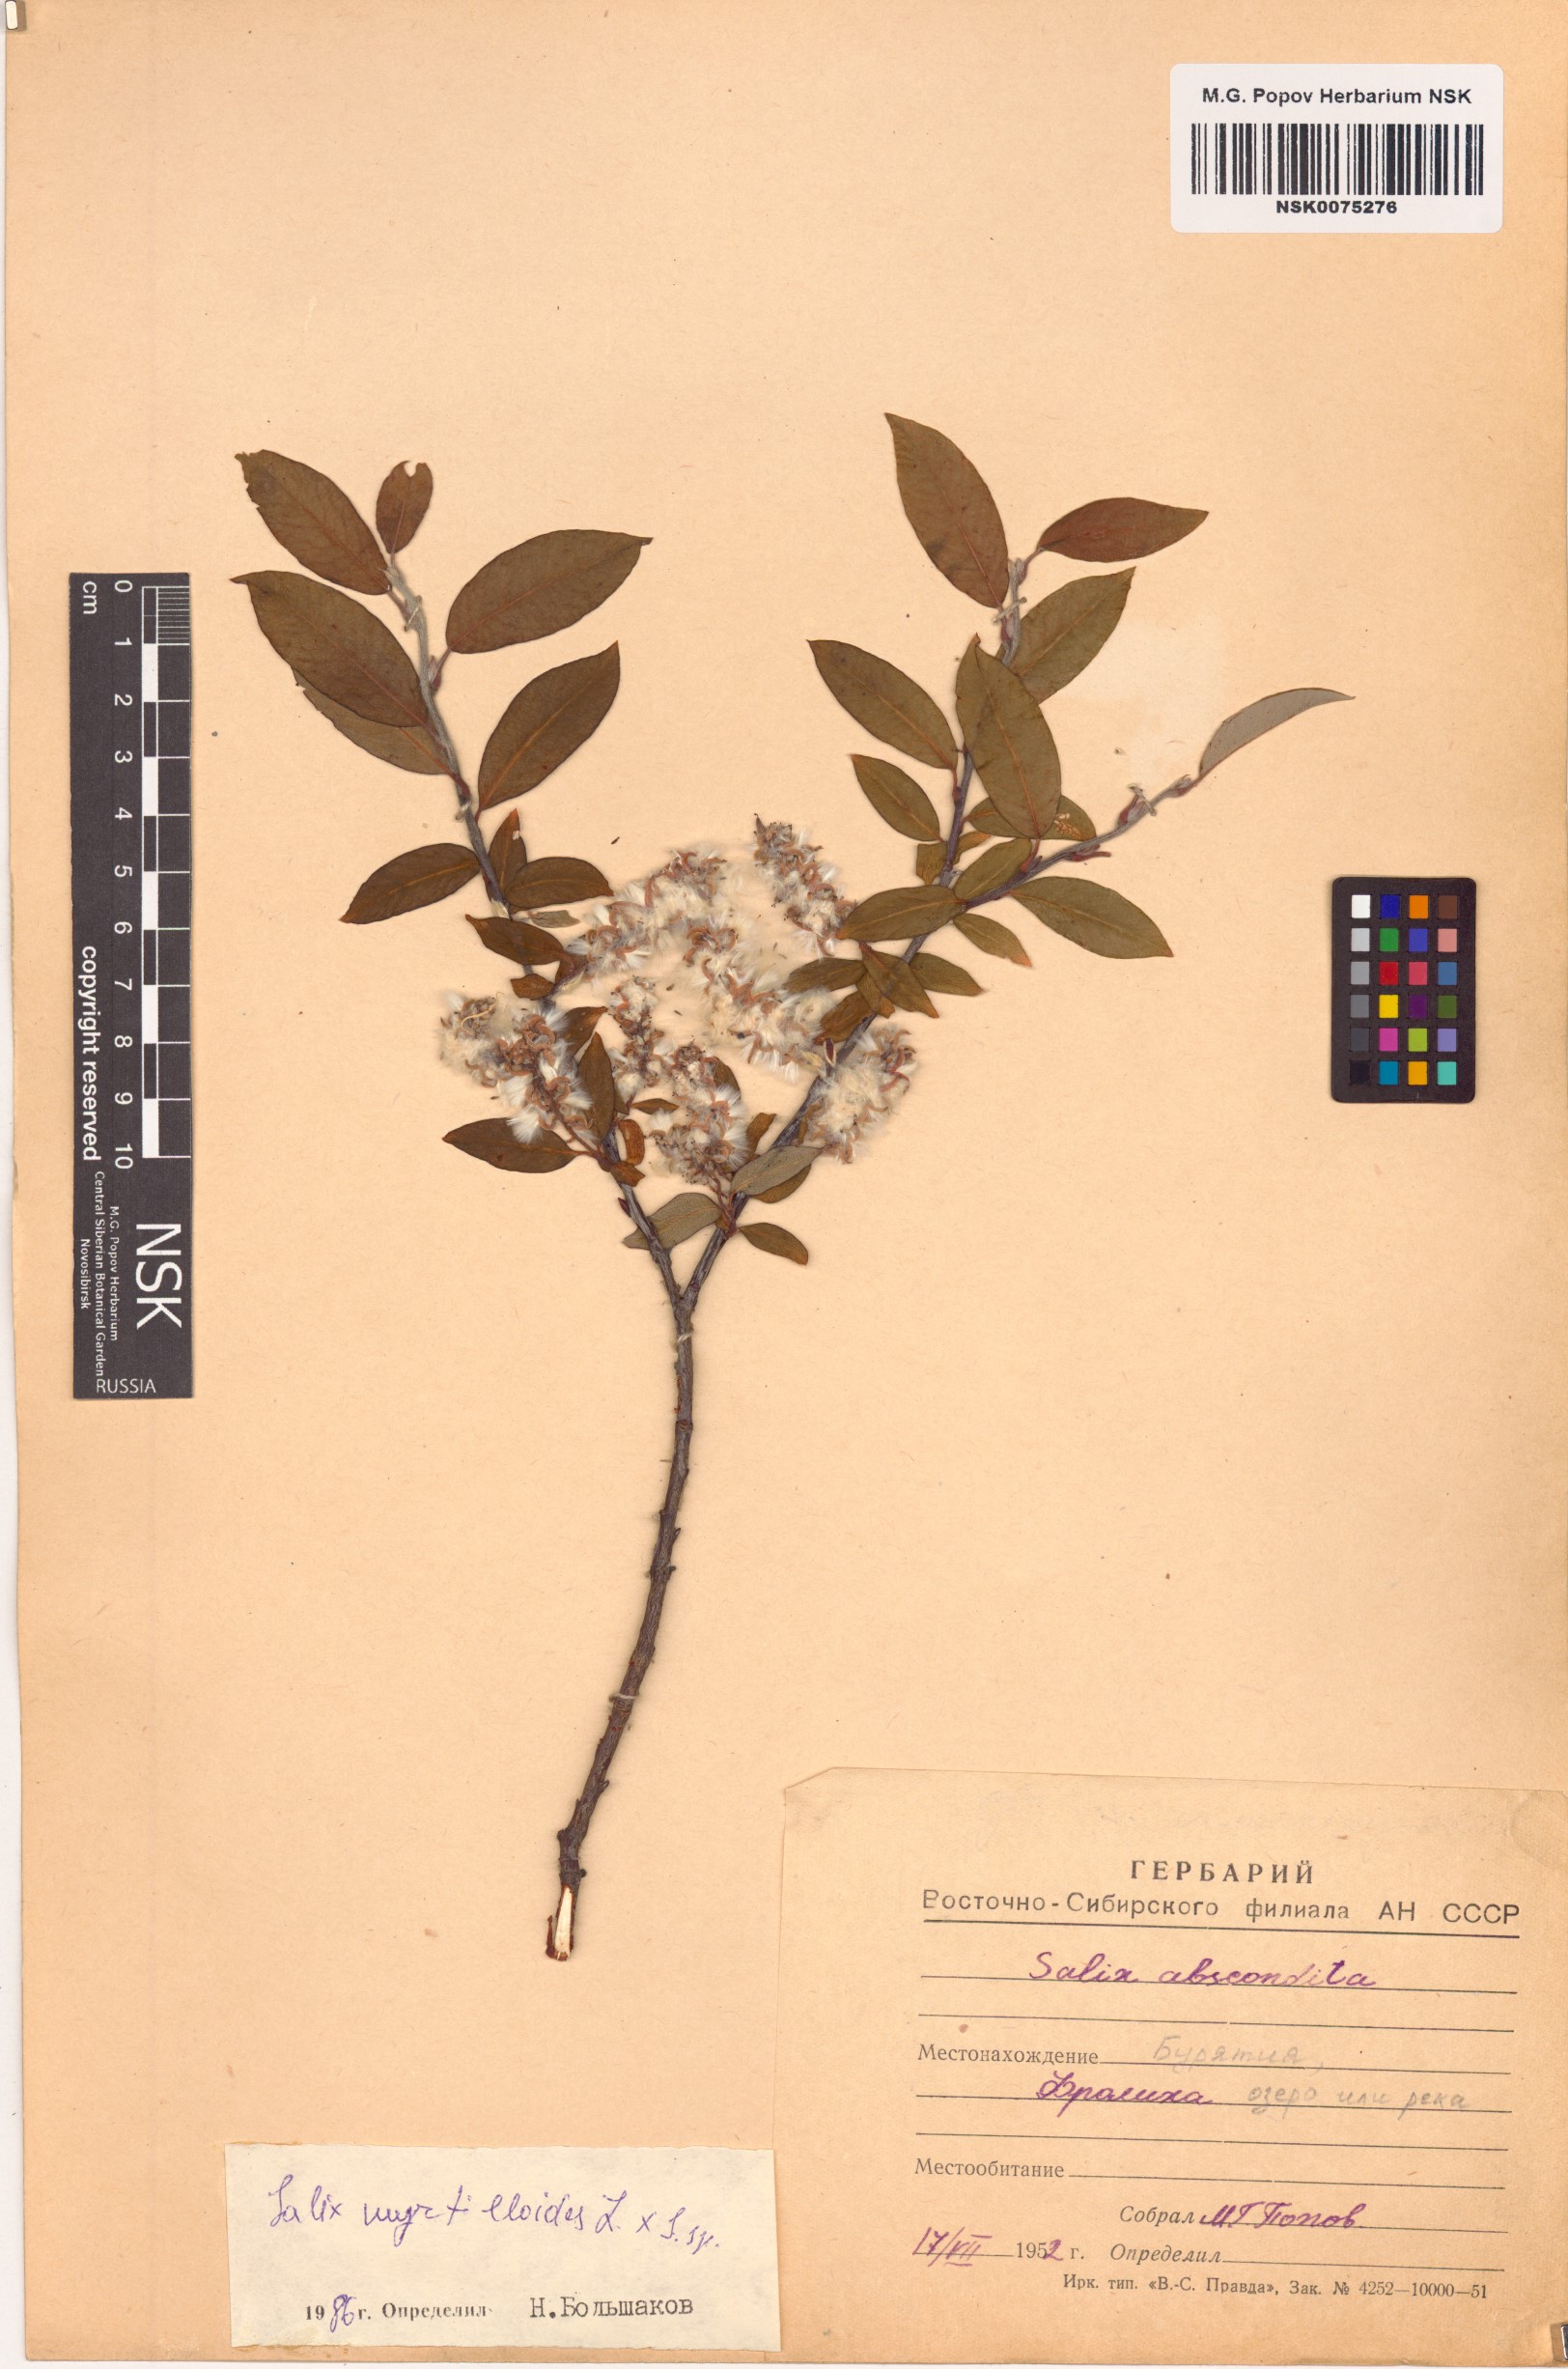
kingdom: Plantae
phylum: Tracheophyta
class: Magnoliopsida
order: Malpighiales
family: Salicaceae
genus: Salix
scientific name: Salix myrtilloides
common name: Myrtle-leaved willow
